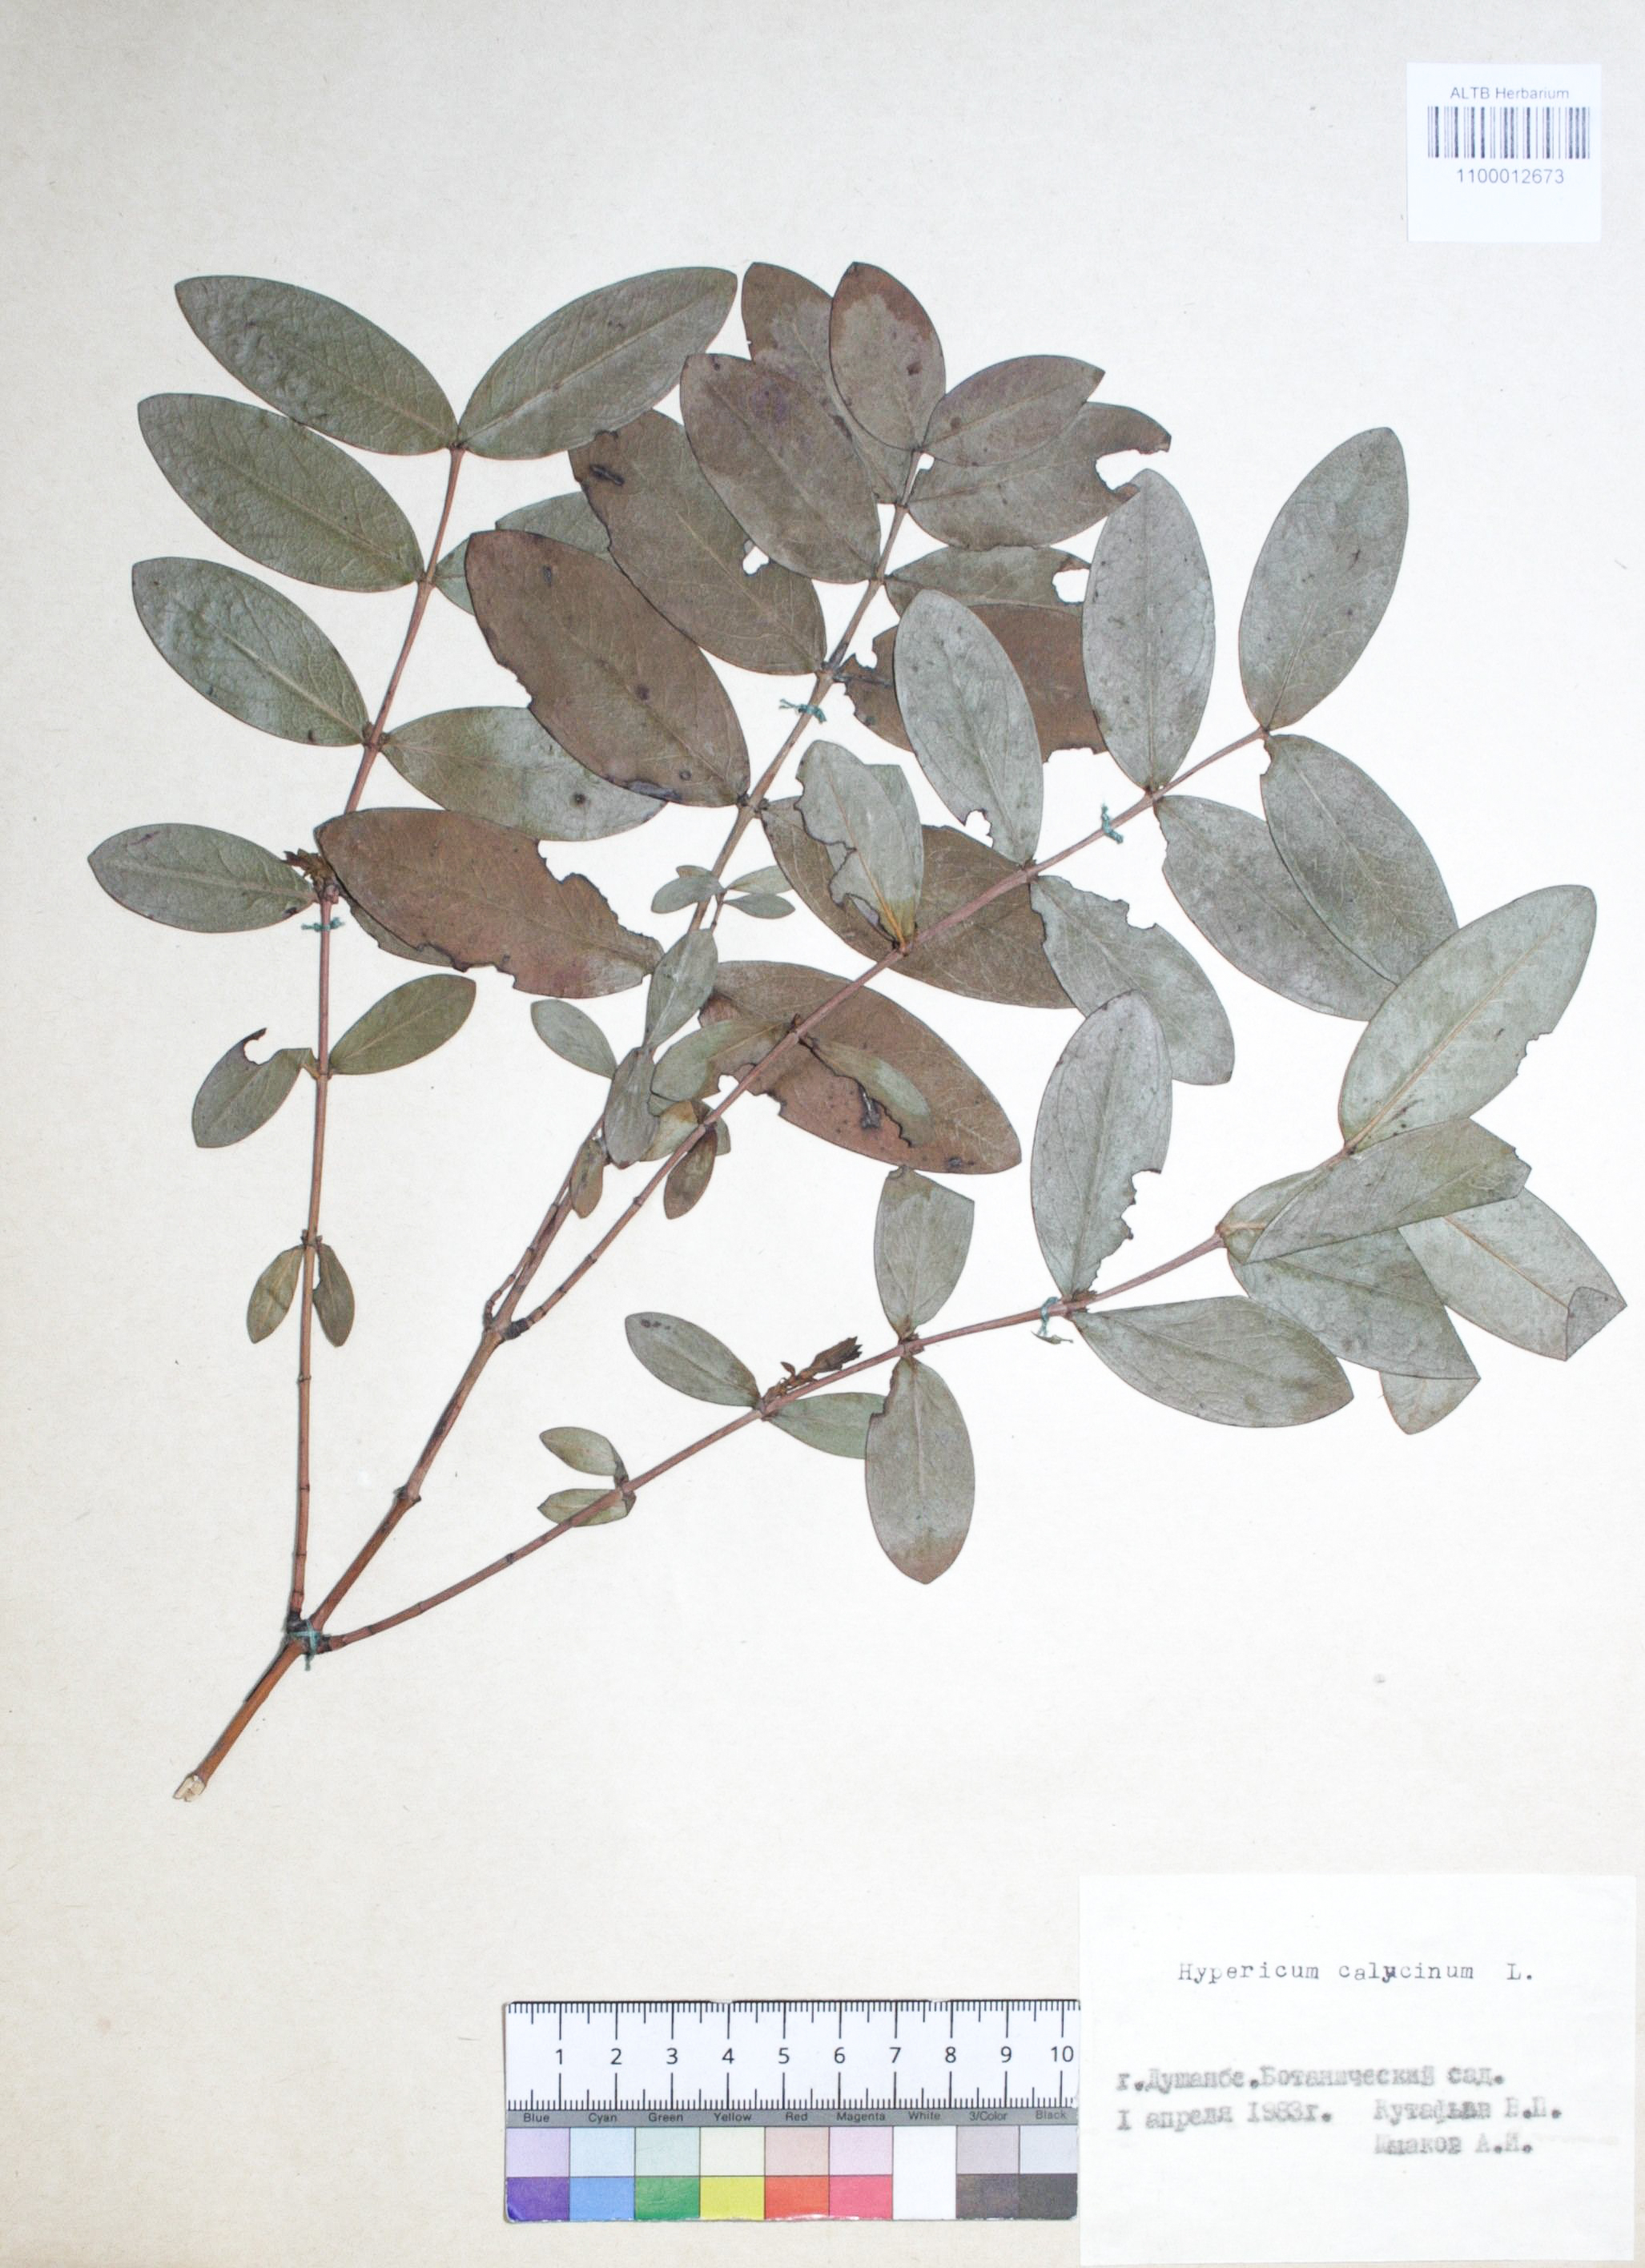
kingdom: Plantae
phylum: Tracheophyta
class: Magnoliopsida
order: Malpighiales
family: Hypericaceae
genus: Hypericum
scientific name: Hypericum calycinum
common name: Rose-of-sharon
